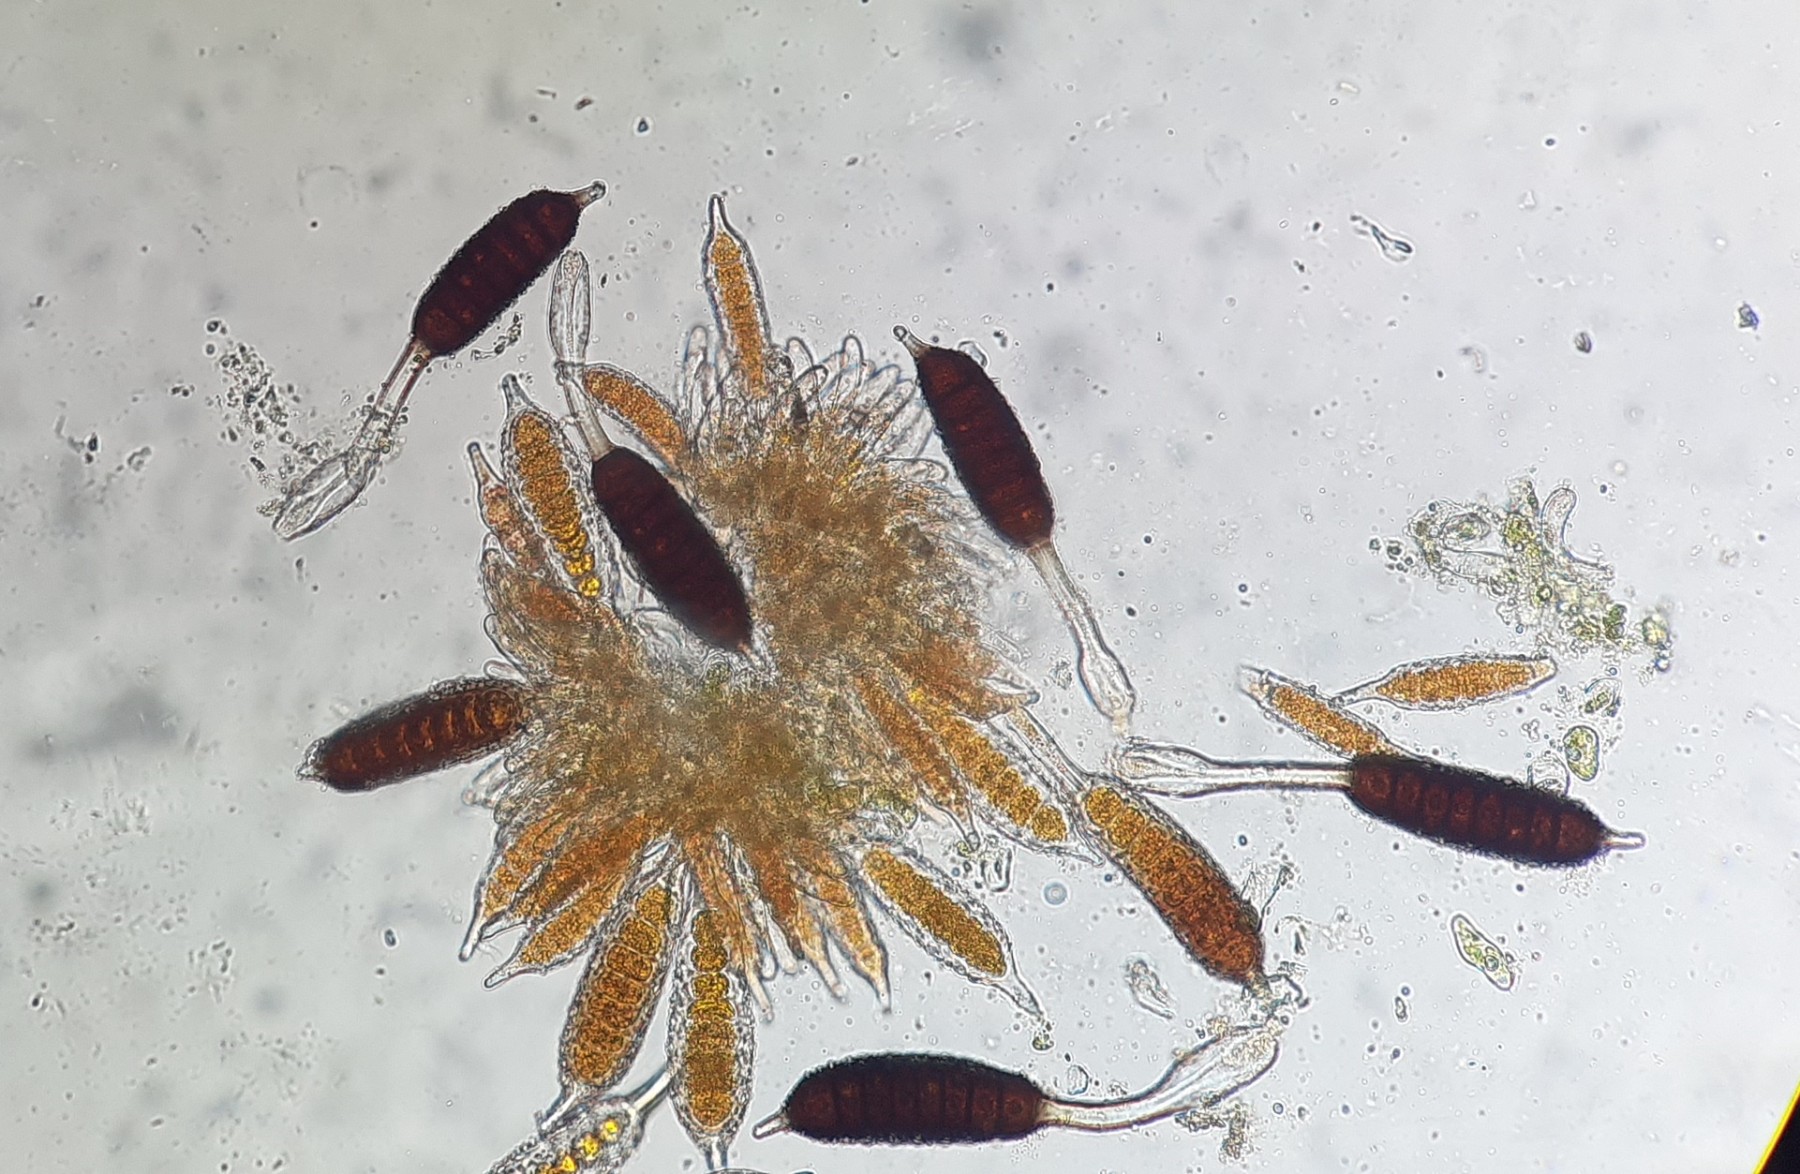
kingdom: Fungi
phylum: Basidiomycota
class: Pucciniomycetes
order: Pucciniales
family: Phragmidiaceae
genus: Phragmidium
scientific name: Phragmidium tuberculatum
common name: Rose rust
